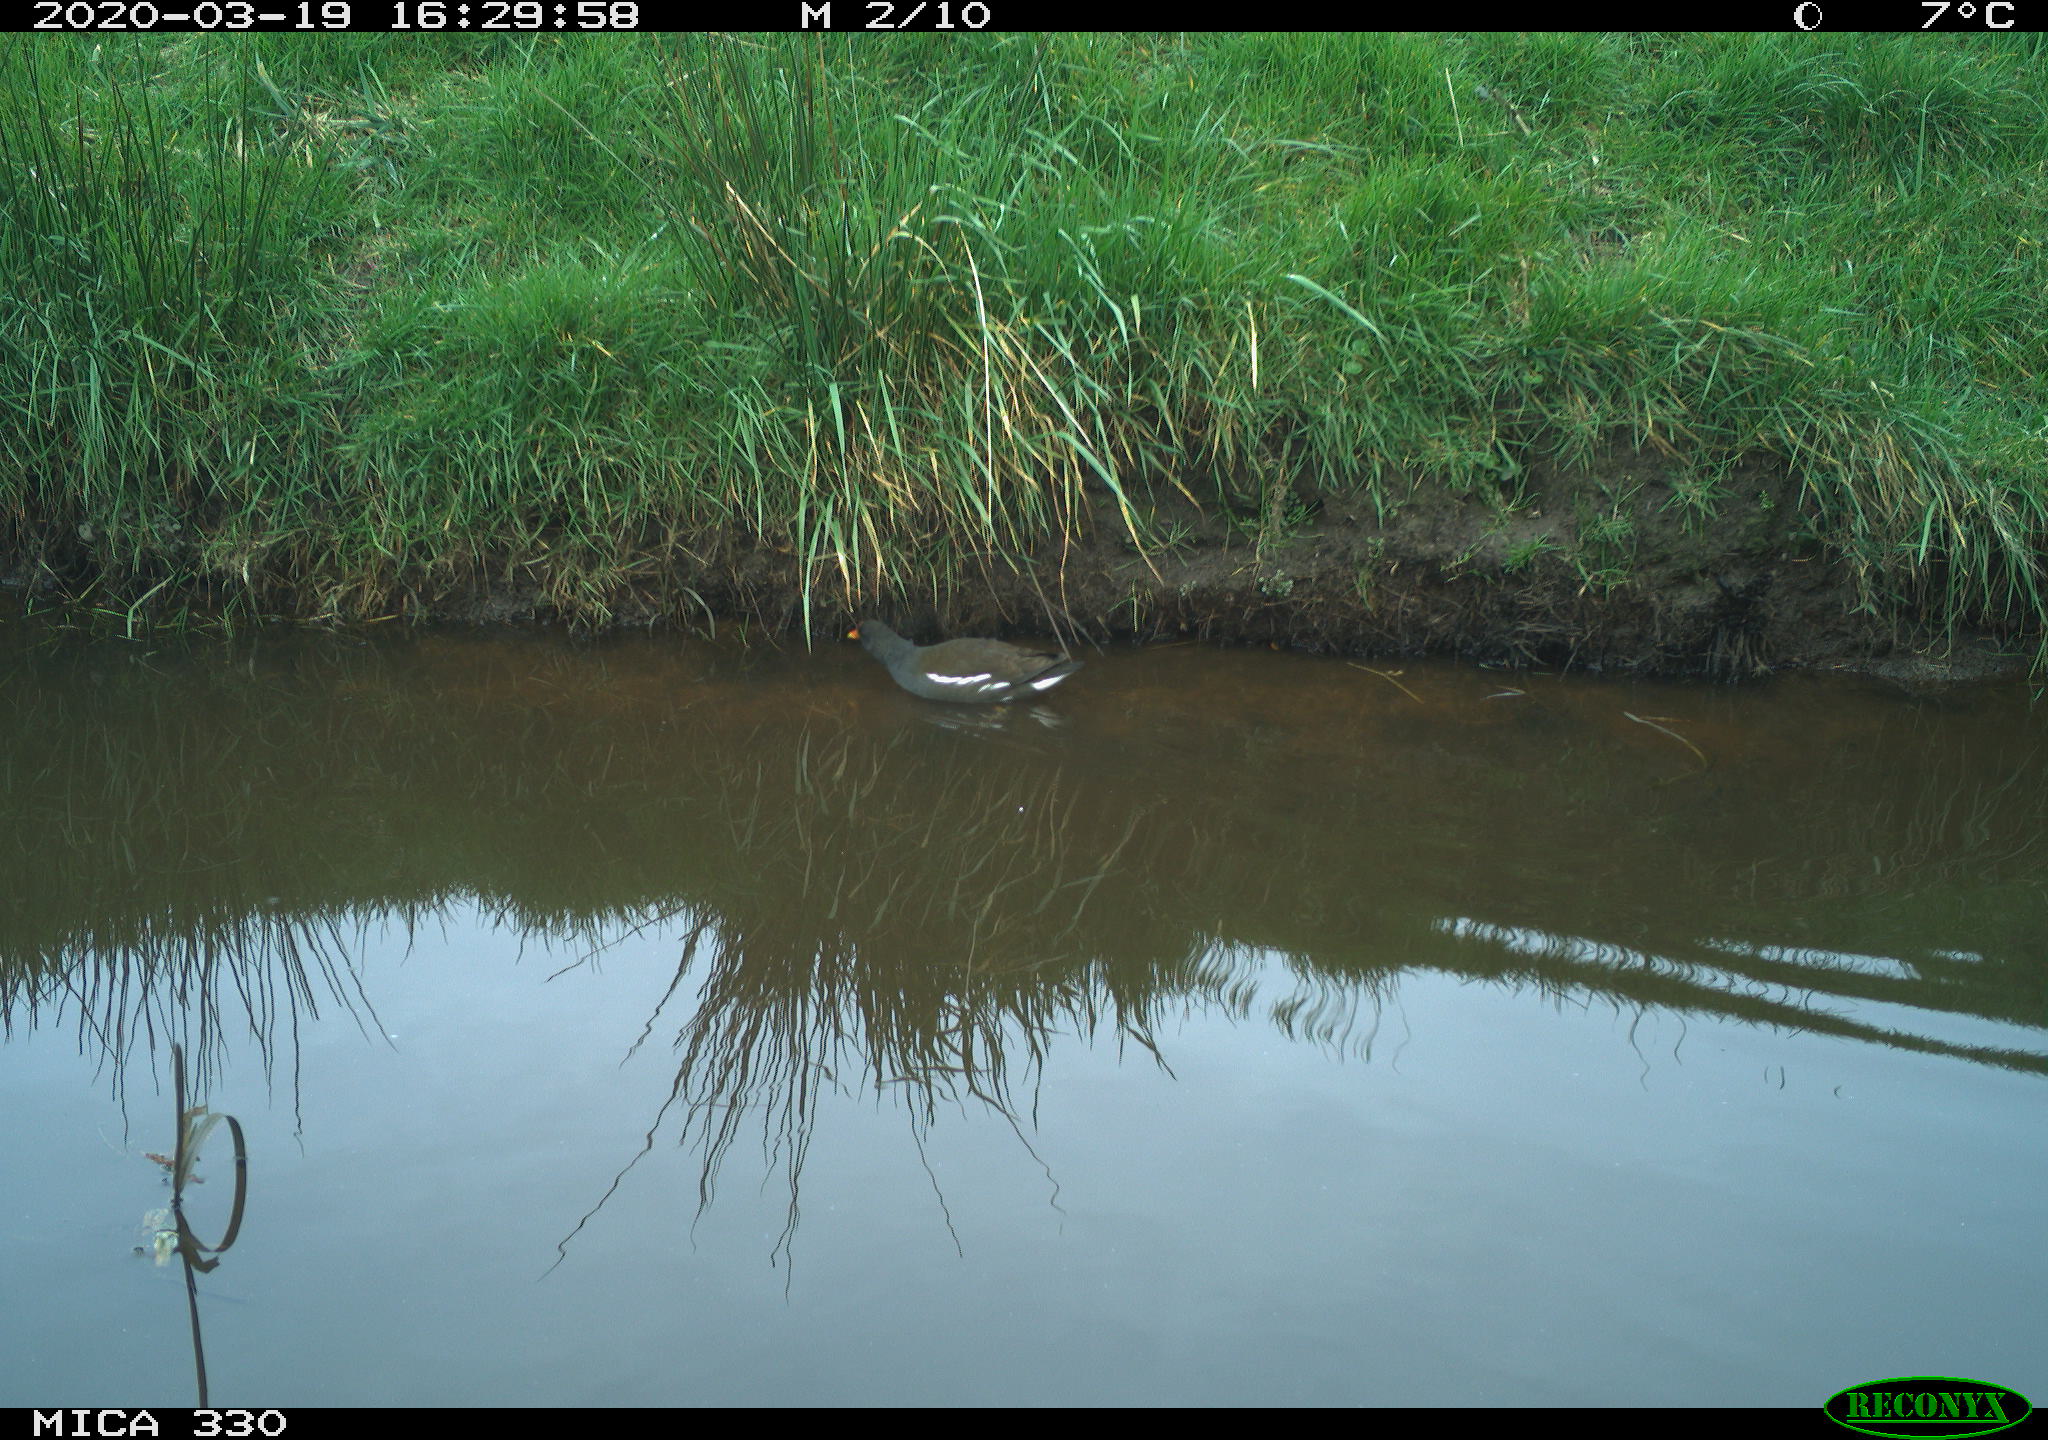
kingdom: Animalia
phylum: Chordata
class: Aves
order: Gruiformes
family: Rallidae
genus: Gallinula
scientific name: Gallinula chloropus
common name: Common moorhen
